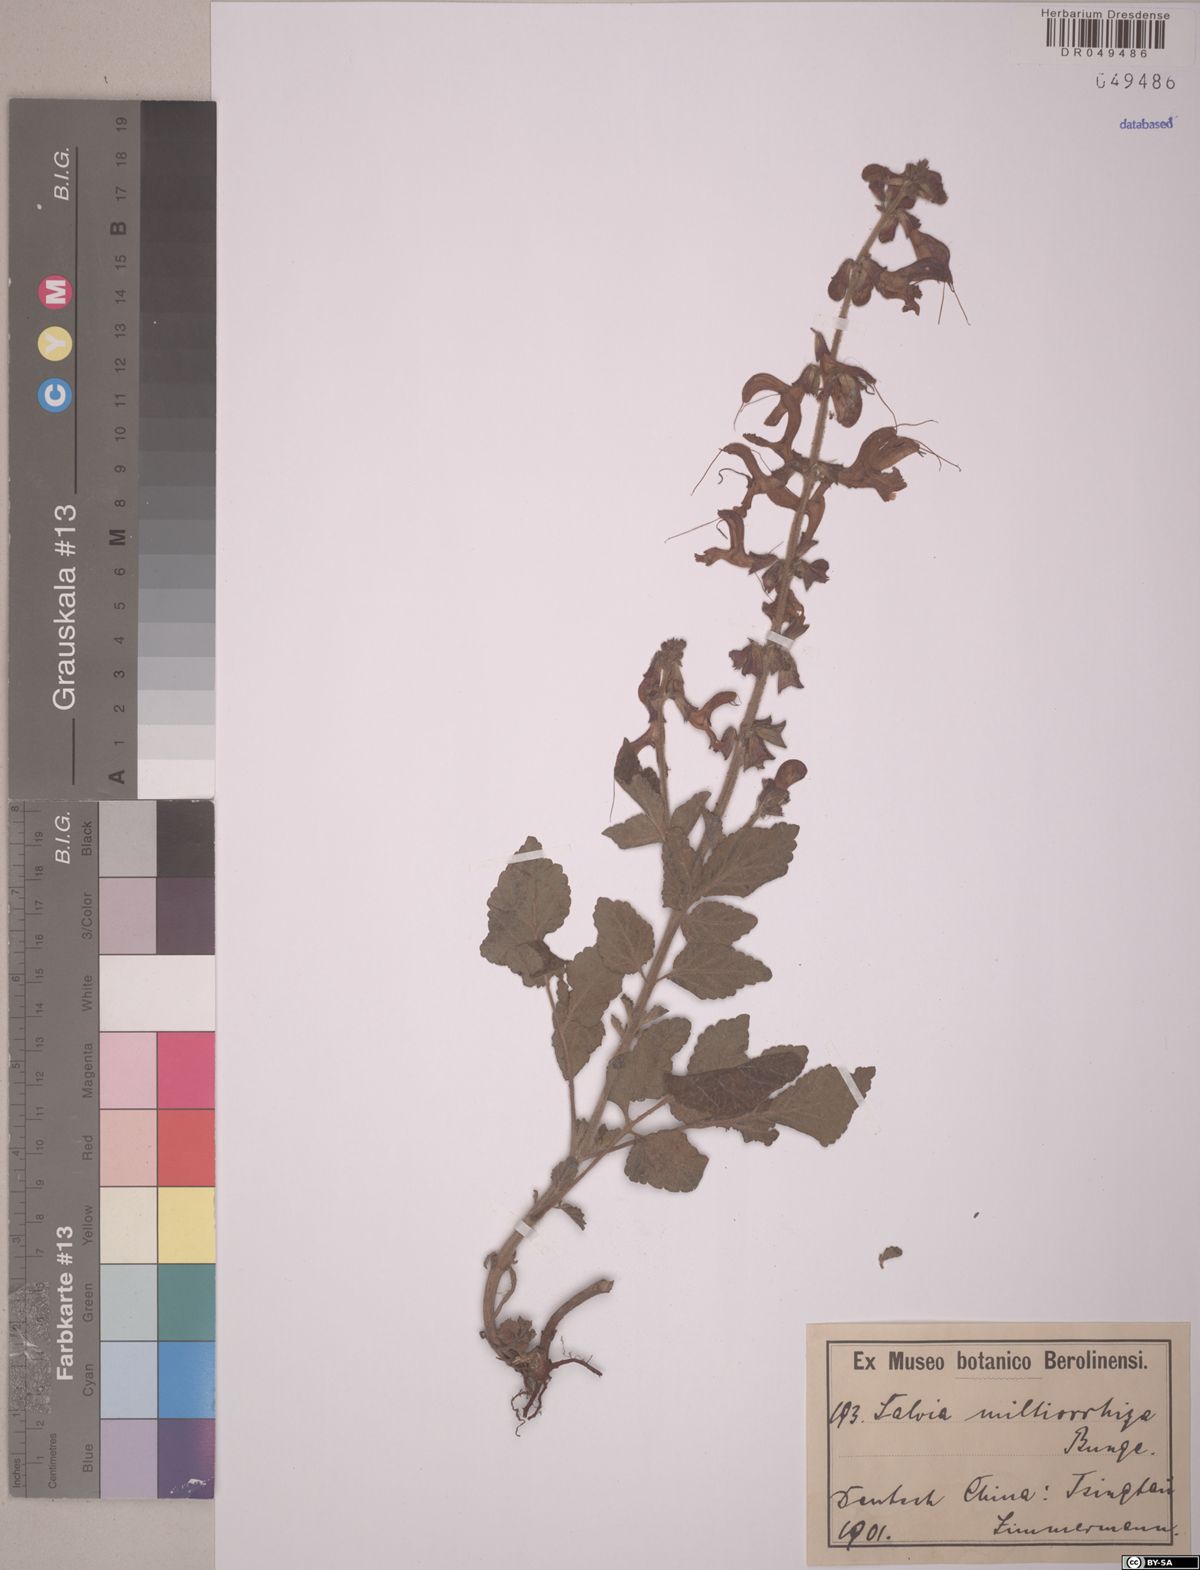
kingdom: Plantae
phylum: Tracheophyta
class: Magnoliopsida
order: Lamiales
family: Lamiaceae
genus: Salvia
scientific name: Salvia miltiorrhiza
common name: Redroot sage
